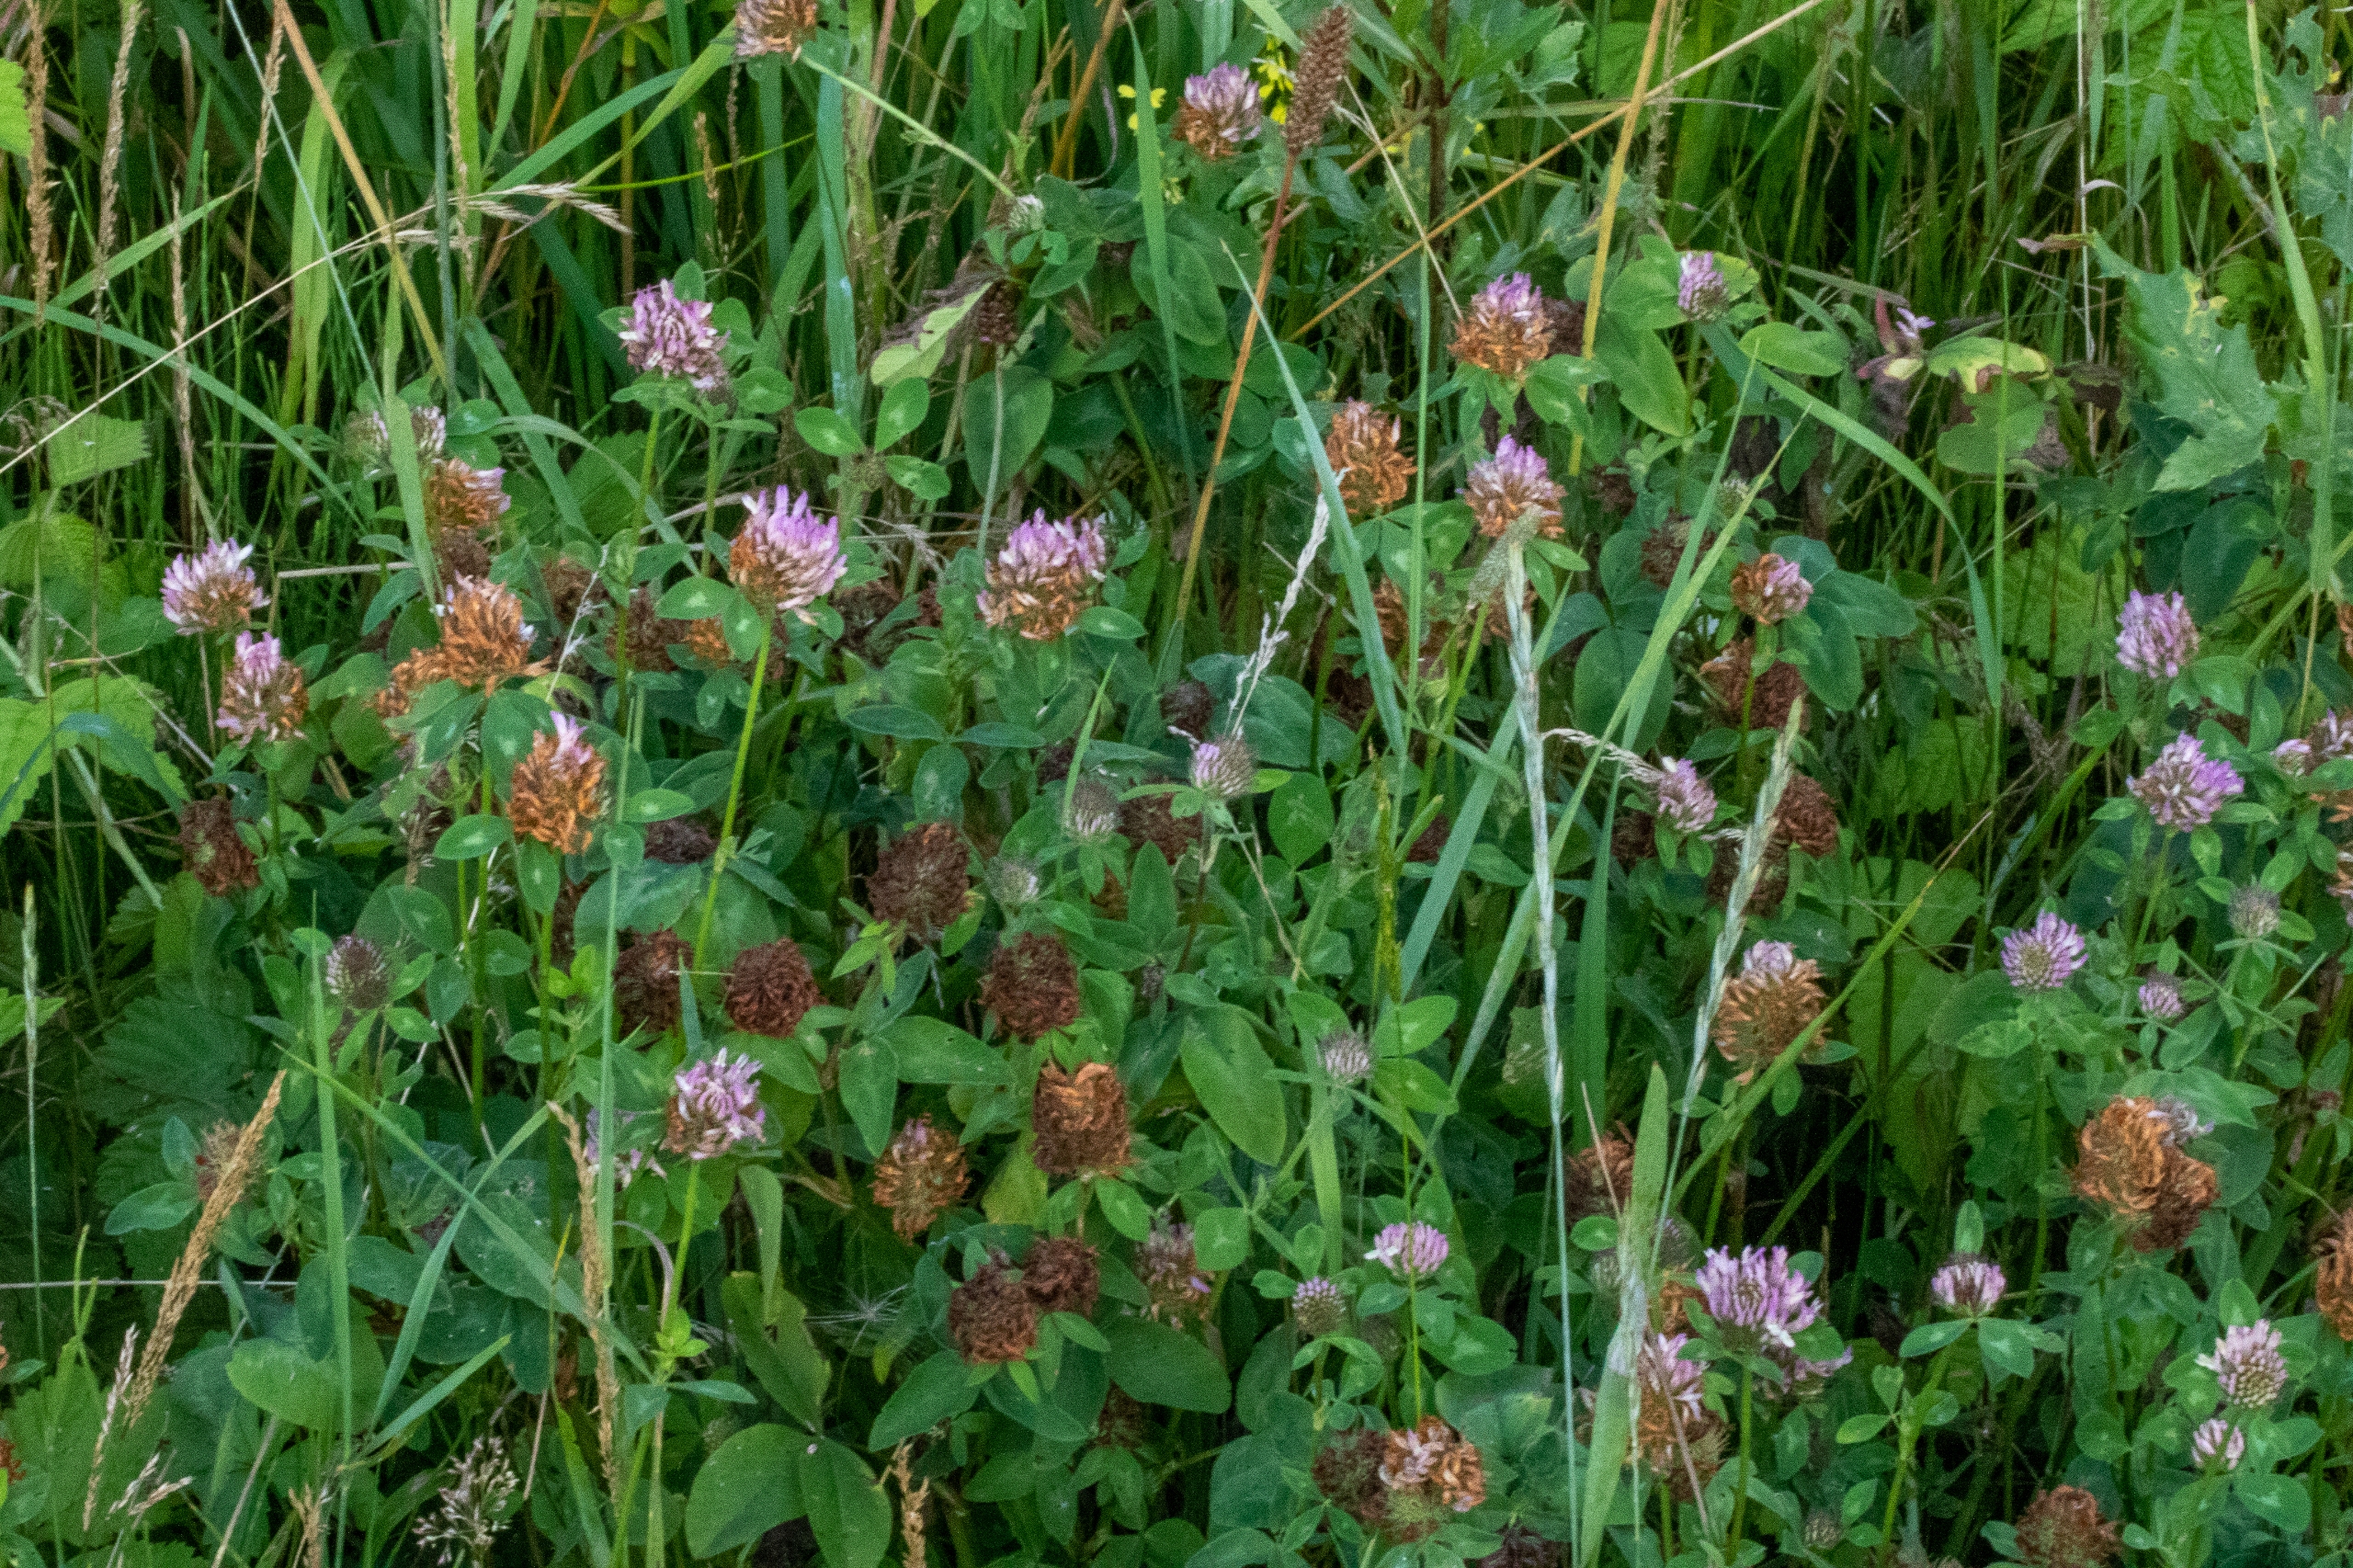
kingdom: Plantae
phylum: Tracheophyta
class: Magnoliopsida
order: Fabales
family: Fabaceae
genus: Trifolium
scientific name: Trifolium pratense
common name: Rød-kløver
